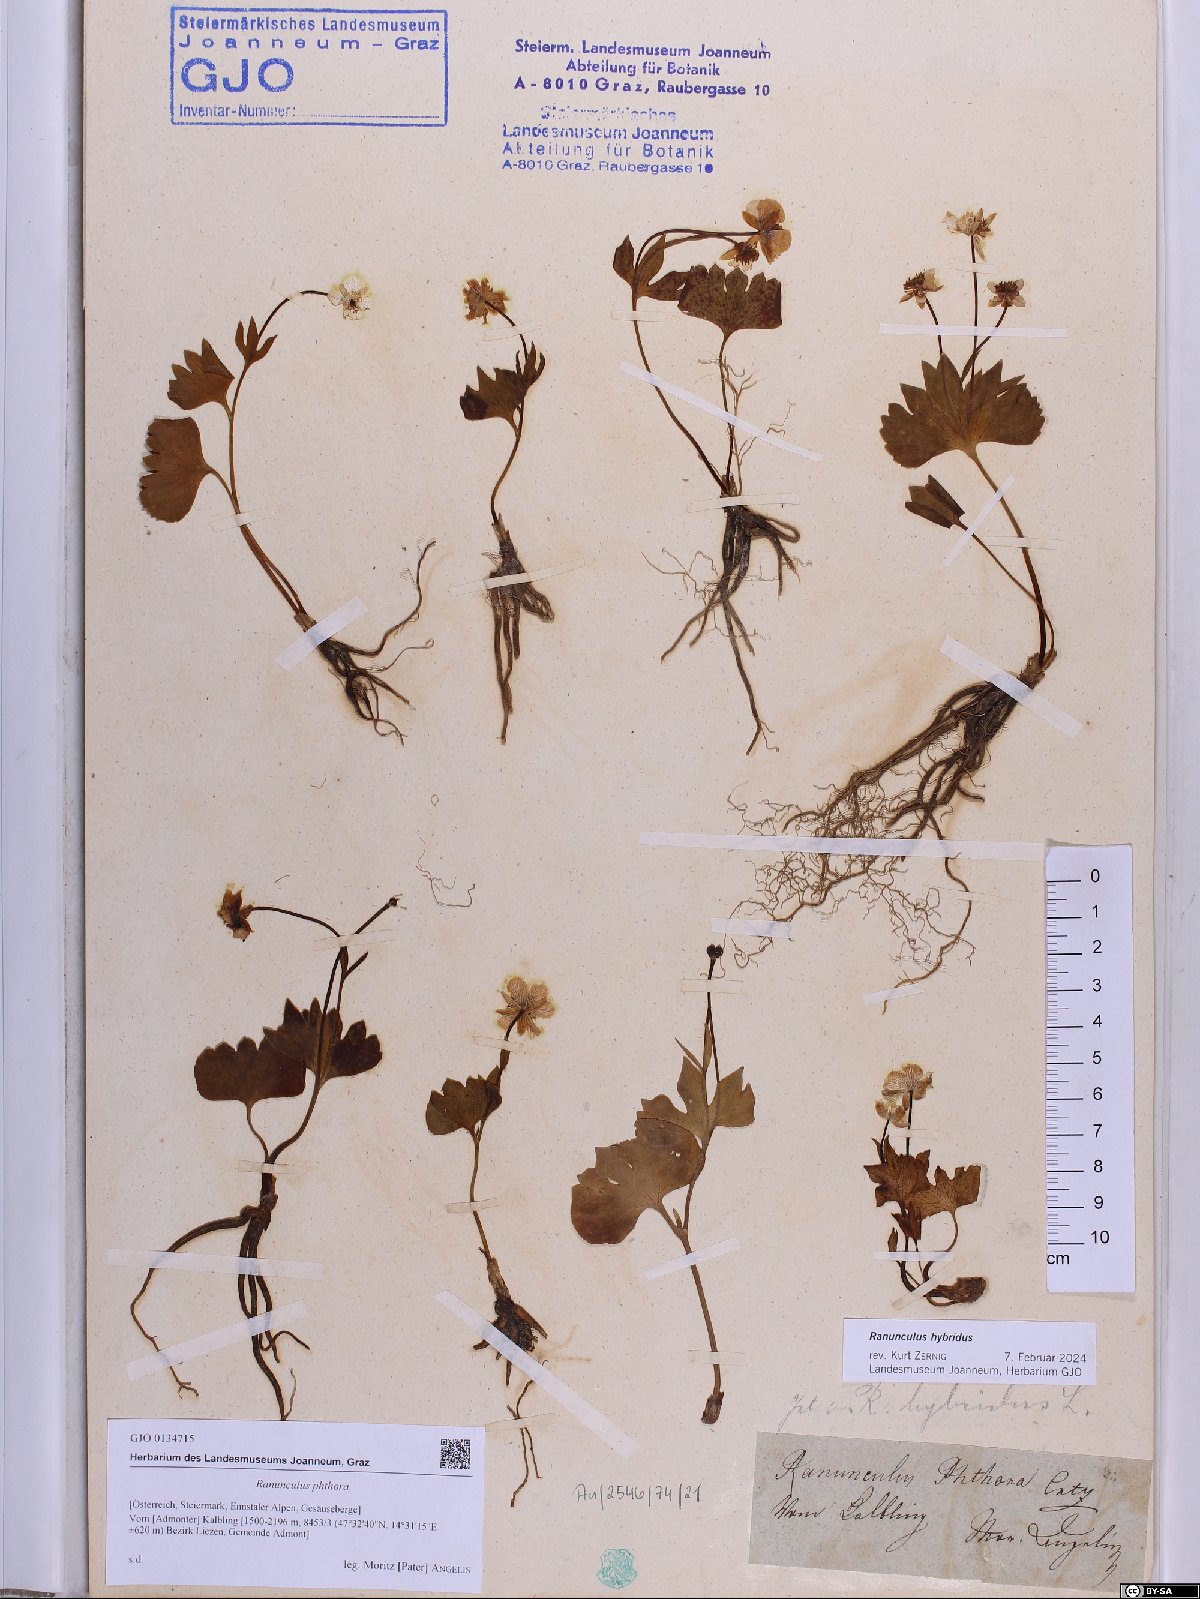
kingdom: Plantae
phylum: Tracheophyta
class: Magnoliopsida
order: Ranunculales
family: Ranunculaceae
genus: Ranunculus
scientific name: Ranunculus phthora
